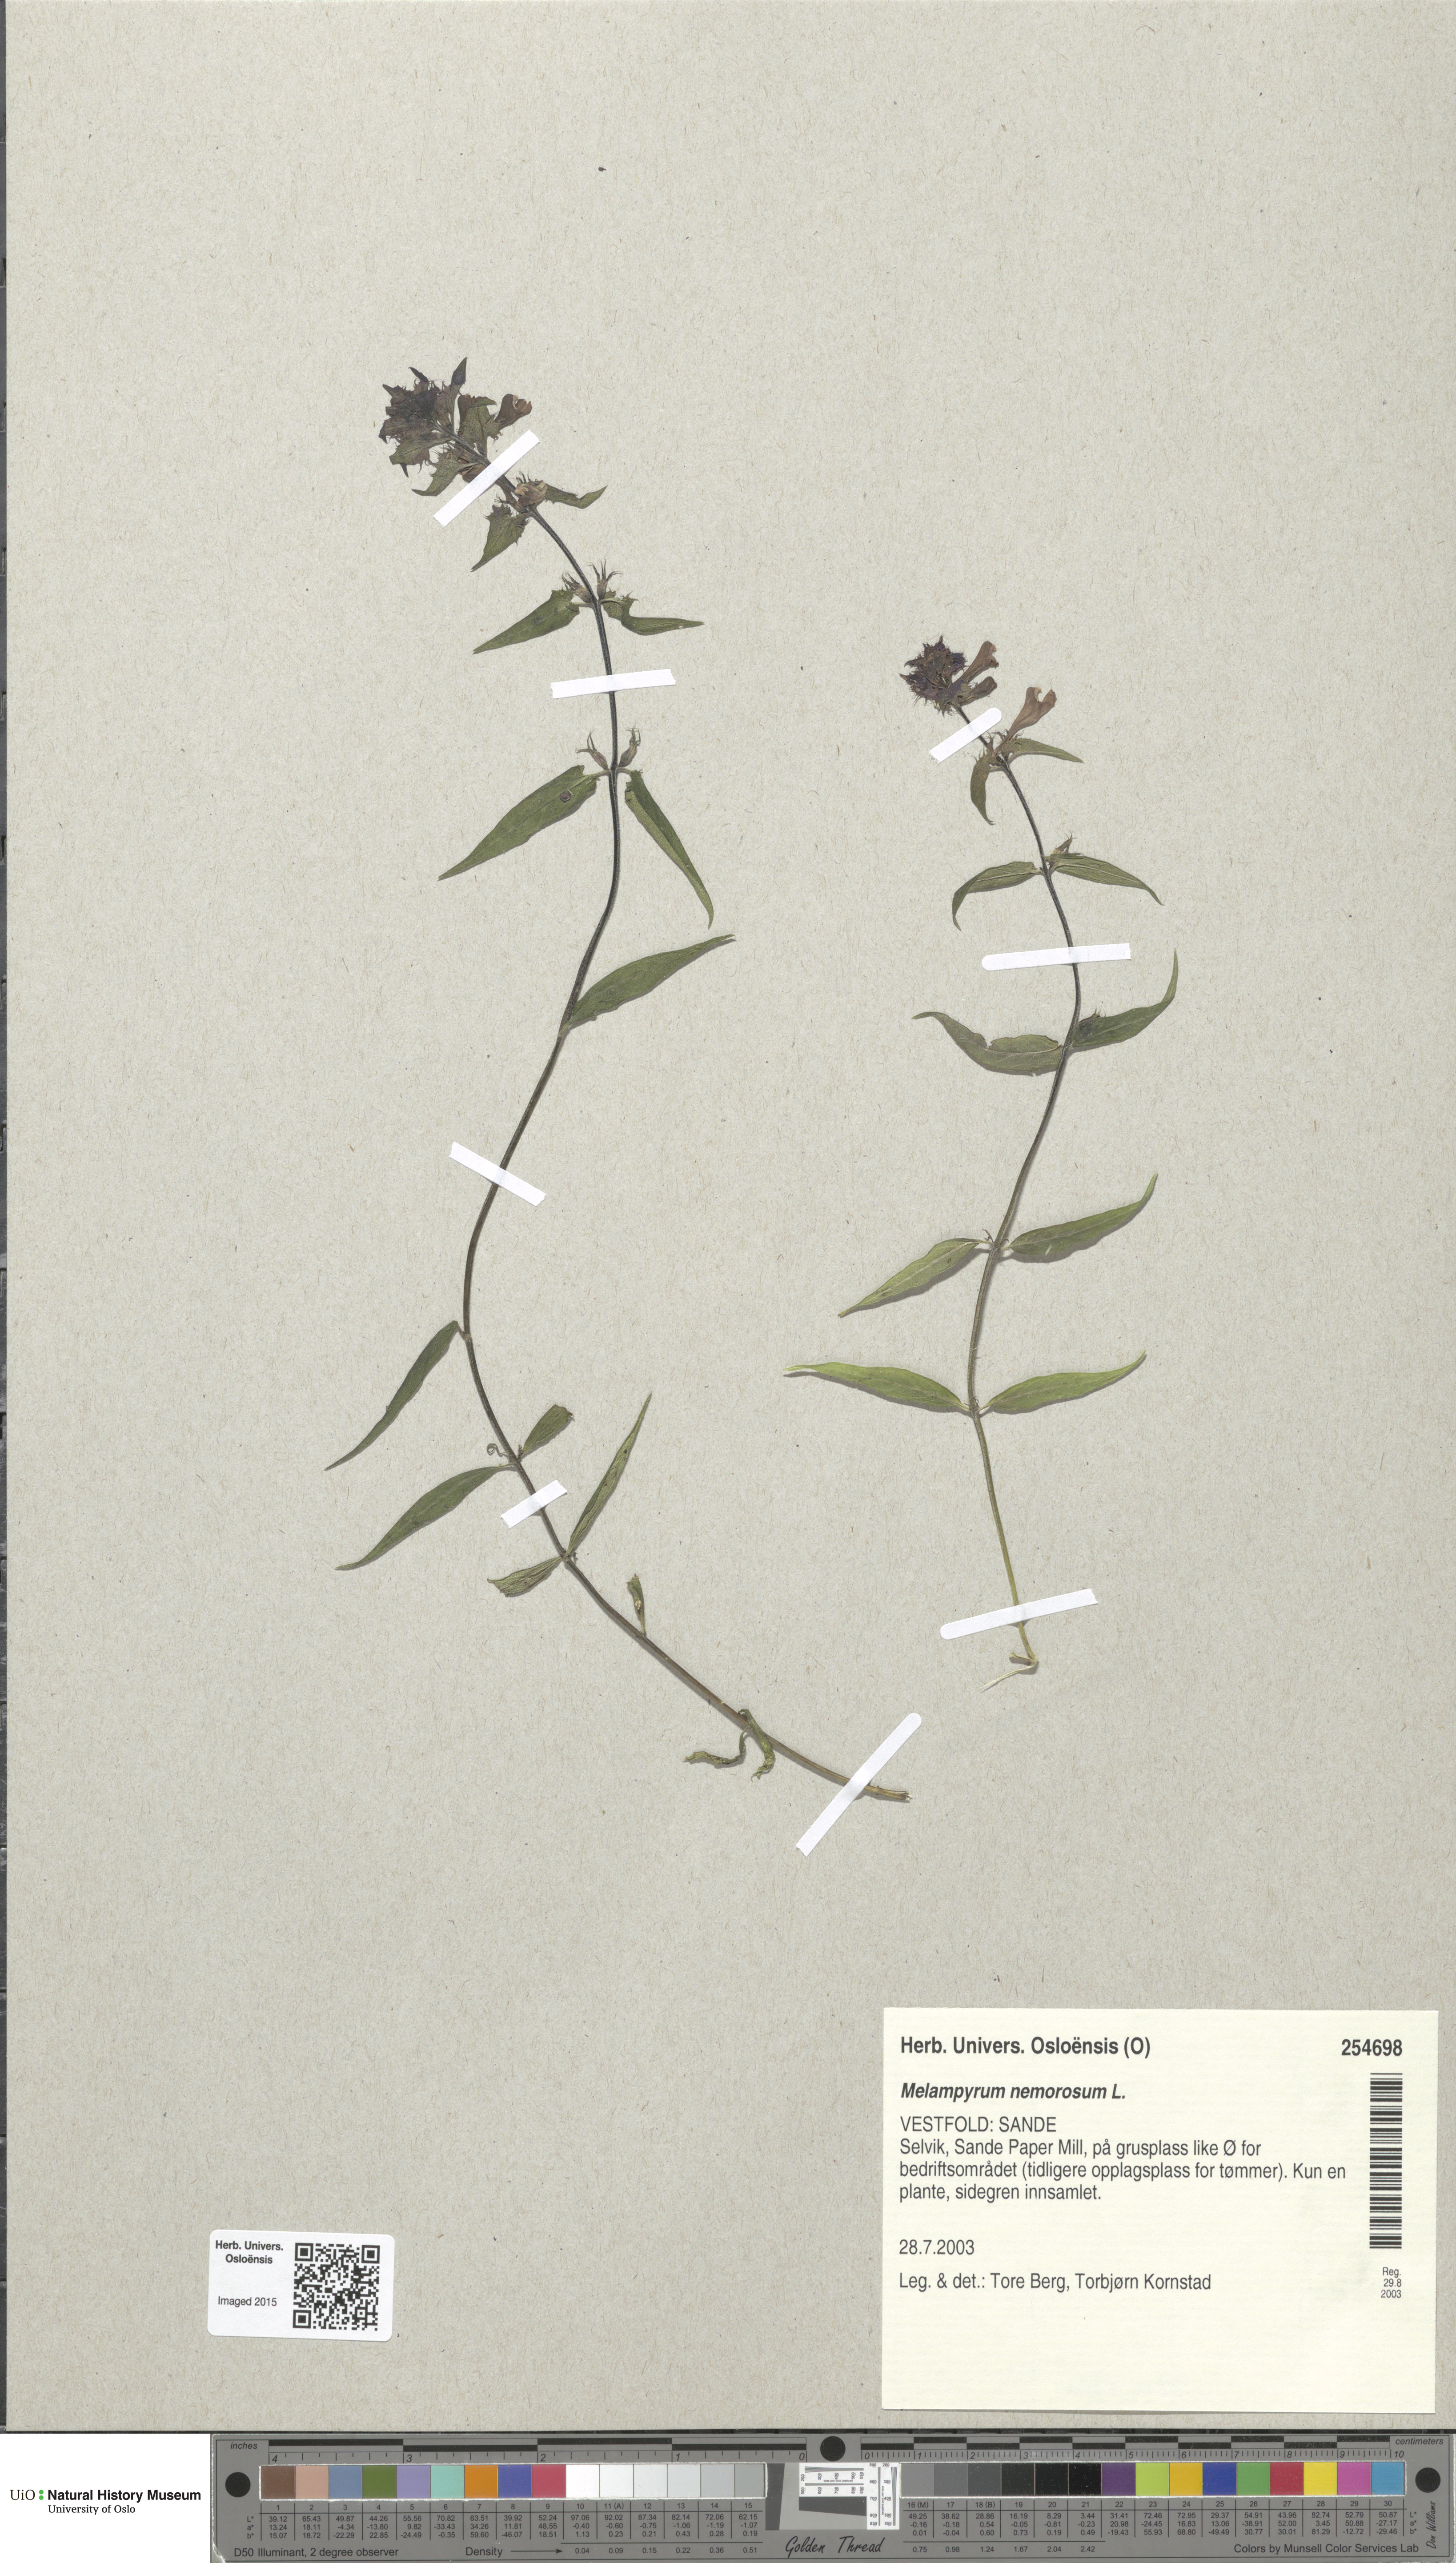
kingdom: Plantae
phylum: Tracheophyta
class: Magnoliopsida
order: Lamiales
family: Orobanchaceae
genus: Melampyrum
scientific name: Melampyrum nemorosum
